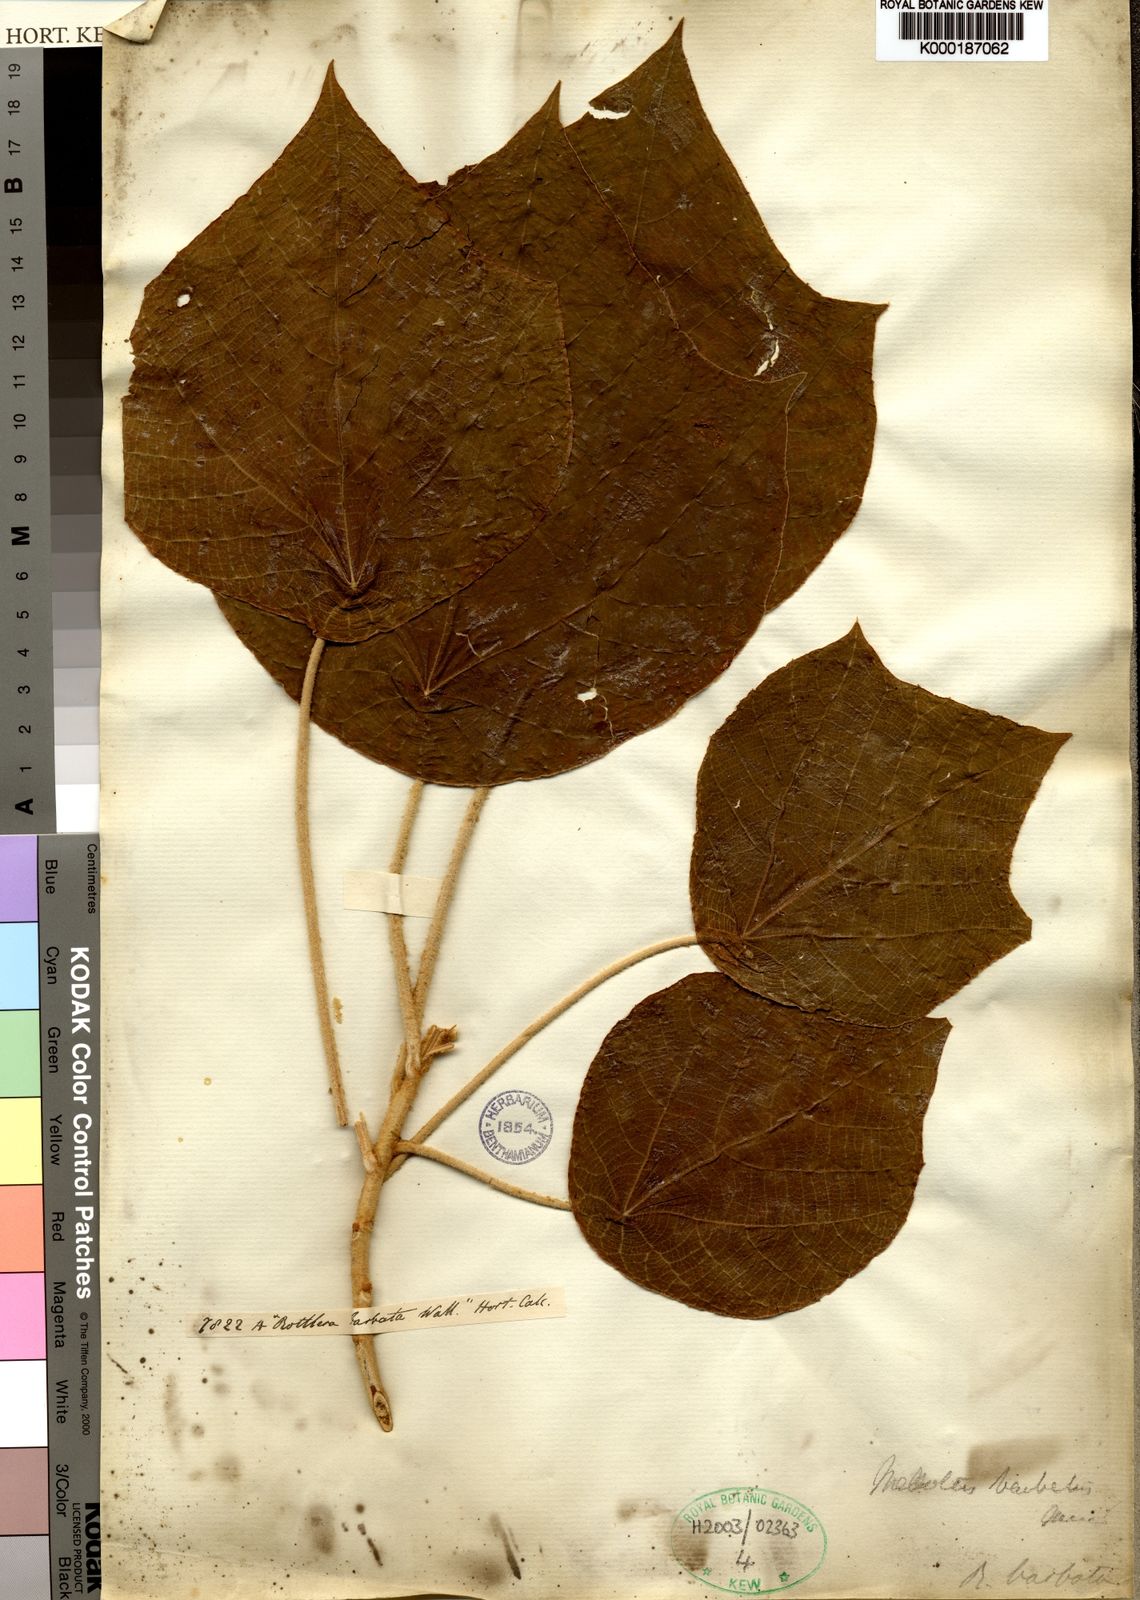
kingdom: Plantae
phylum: Tracheophyta
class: Magnoliopsida
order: Malpighiales
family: Euphorbiaceae
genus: Mallotus
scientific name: Mallotus barbatus
